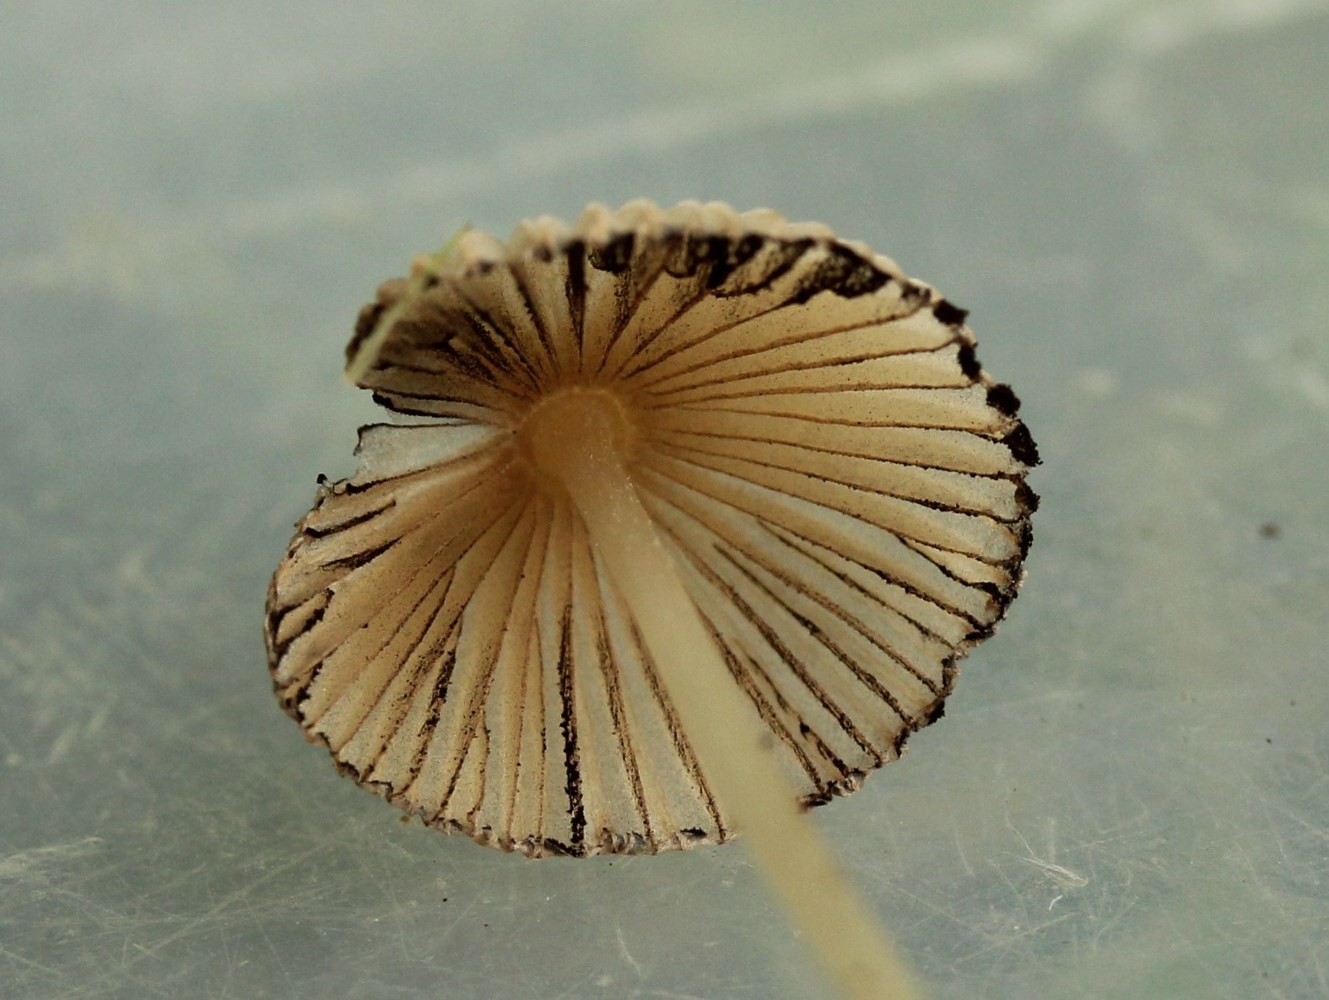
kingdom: Fungi
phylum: Basidiomycota
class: Agaricomycetes
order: Agaricales
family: Psathyrellaceae
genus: Parasola
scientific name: Parasola
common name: hjulhat
